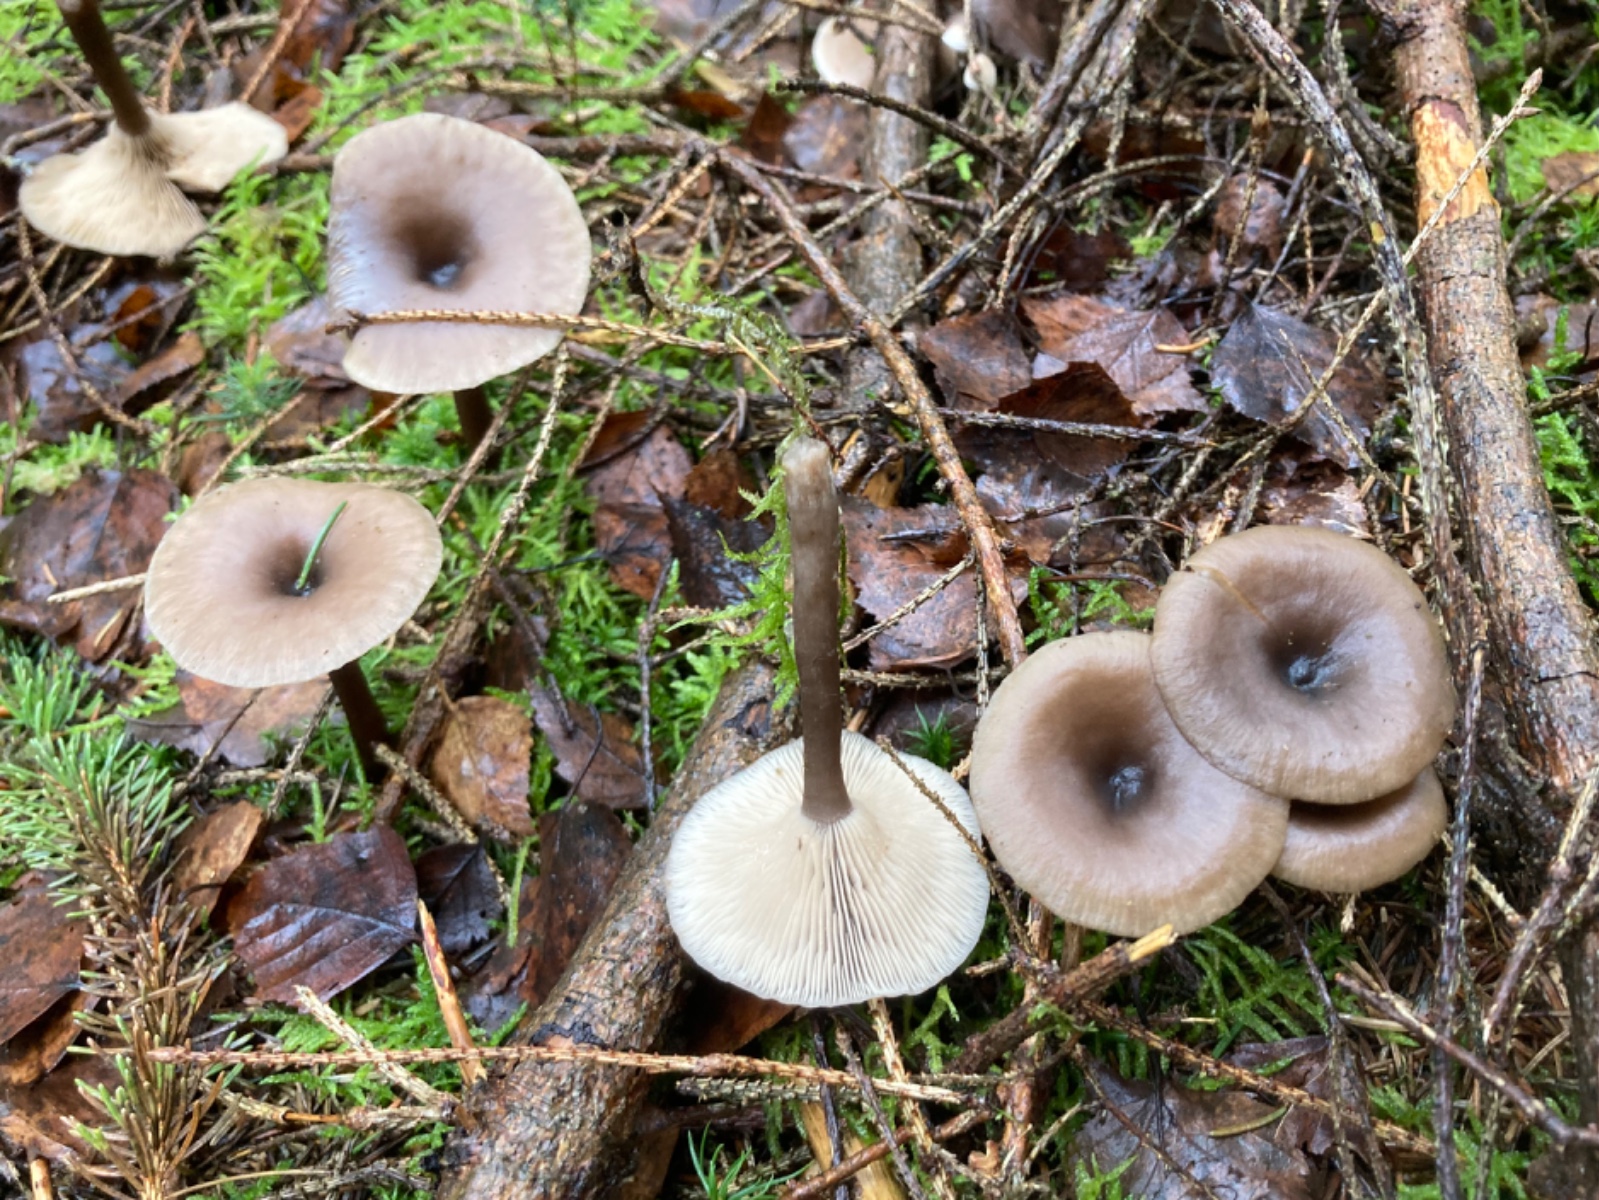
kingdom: Fungi
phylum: Basidiomycota
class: Agaricomycetes
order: Agaricales
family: Pseudoclitocybaceae
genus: Pseudoclitocybe
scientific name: Pseudoclitocybe cyathiformis
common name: almindelig bægertragthat
